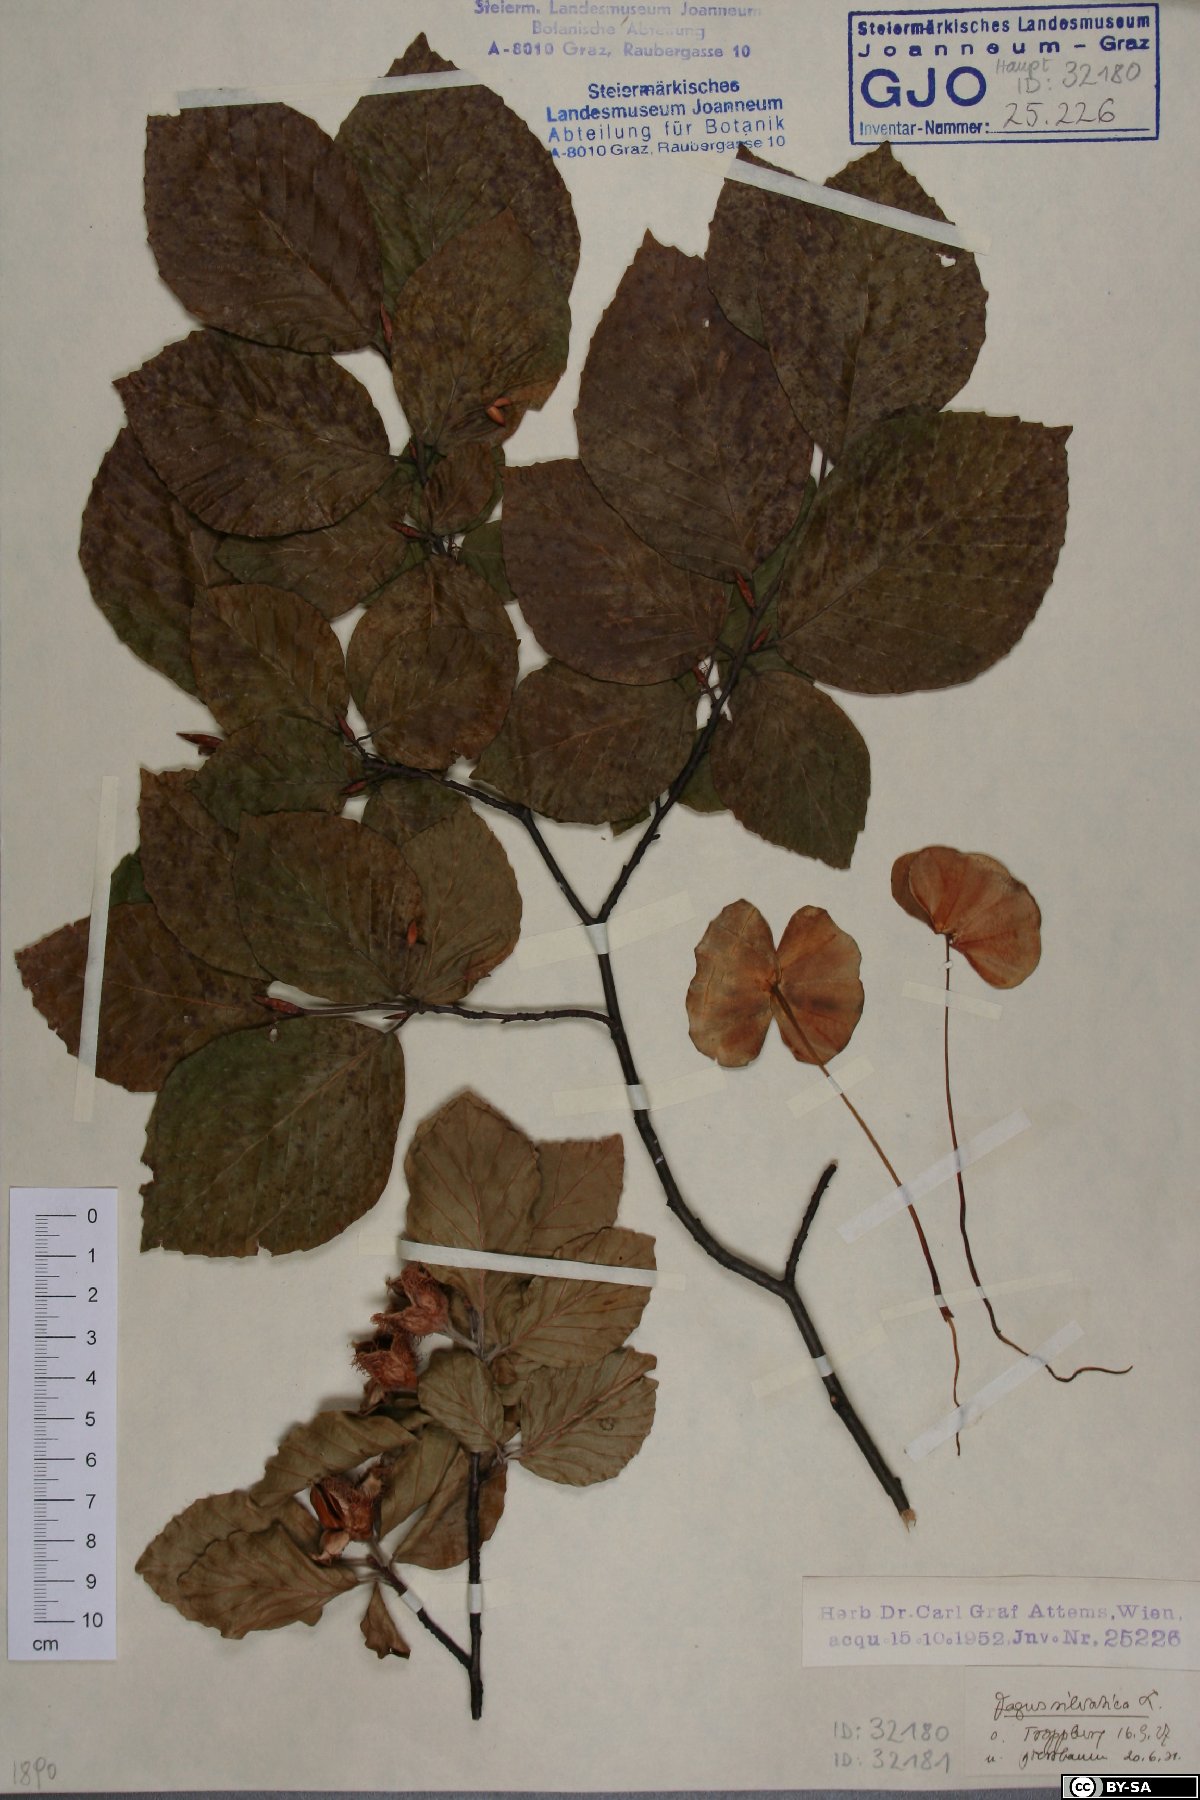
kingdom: Plantae
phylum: Tracheophyta
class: Magnoliopsida
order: Fagales
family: Fagaceae
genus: Fagus
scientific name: Fagus sylvatica
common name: Beech
